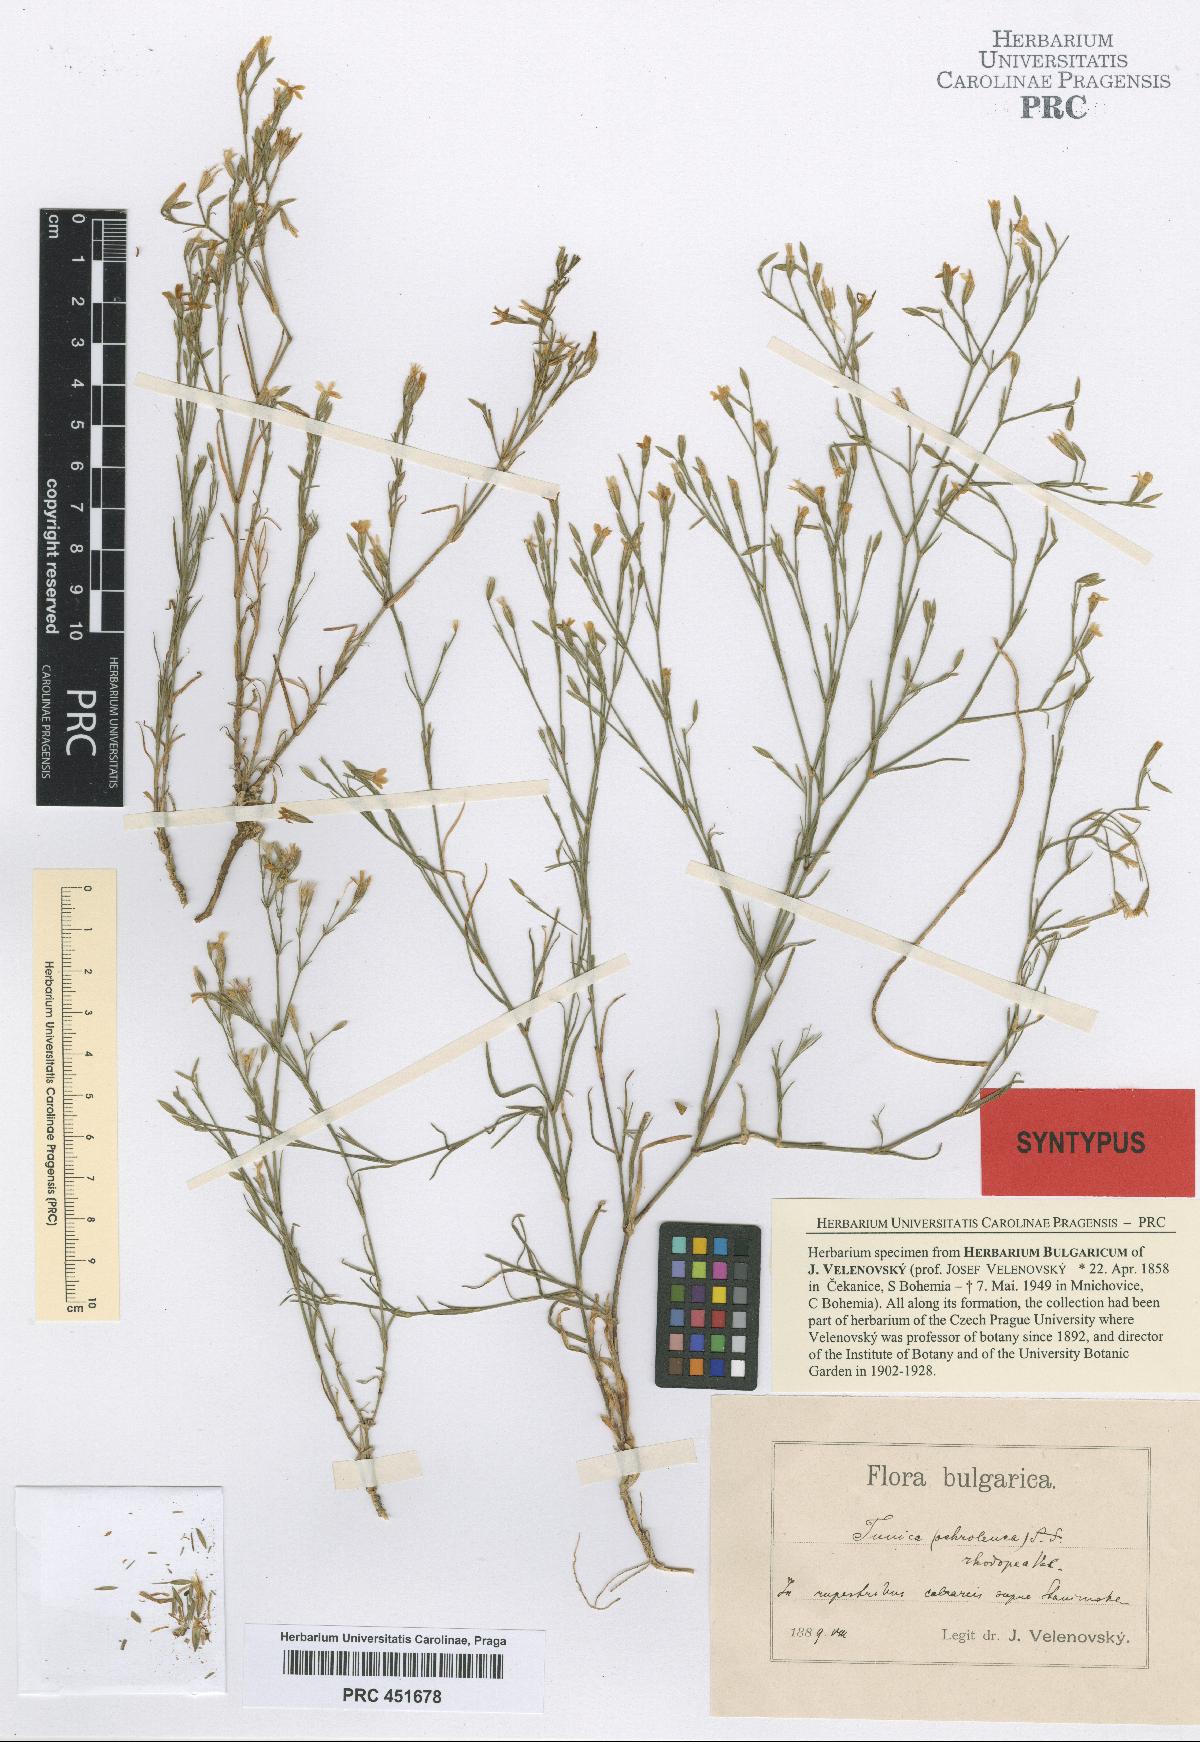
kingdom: Plantae
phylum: Tracheophyta
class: Magnoliopsida
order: Caryophyllales
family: Caryophyllaceae
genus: Petrorhagia
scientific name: Petrorhagia ochroleuca
